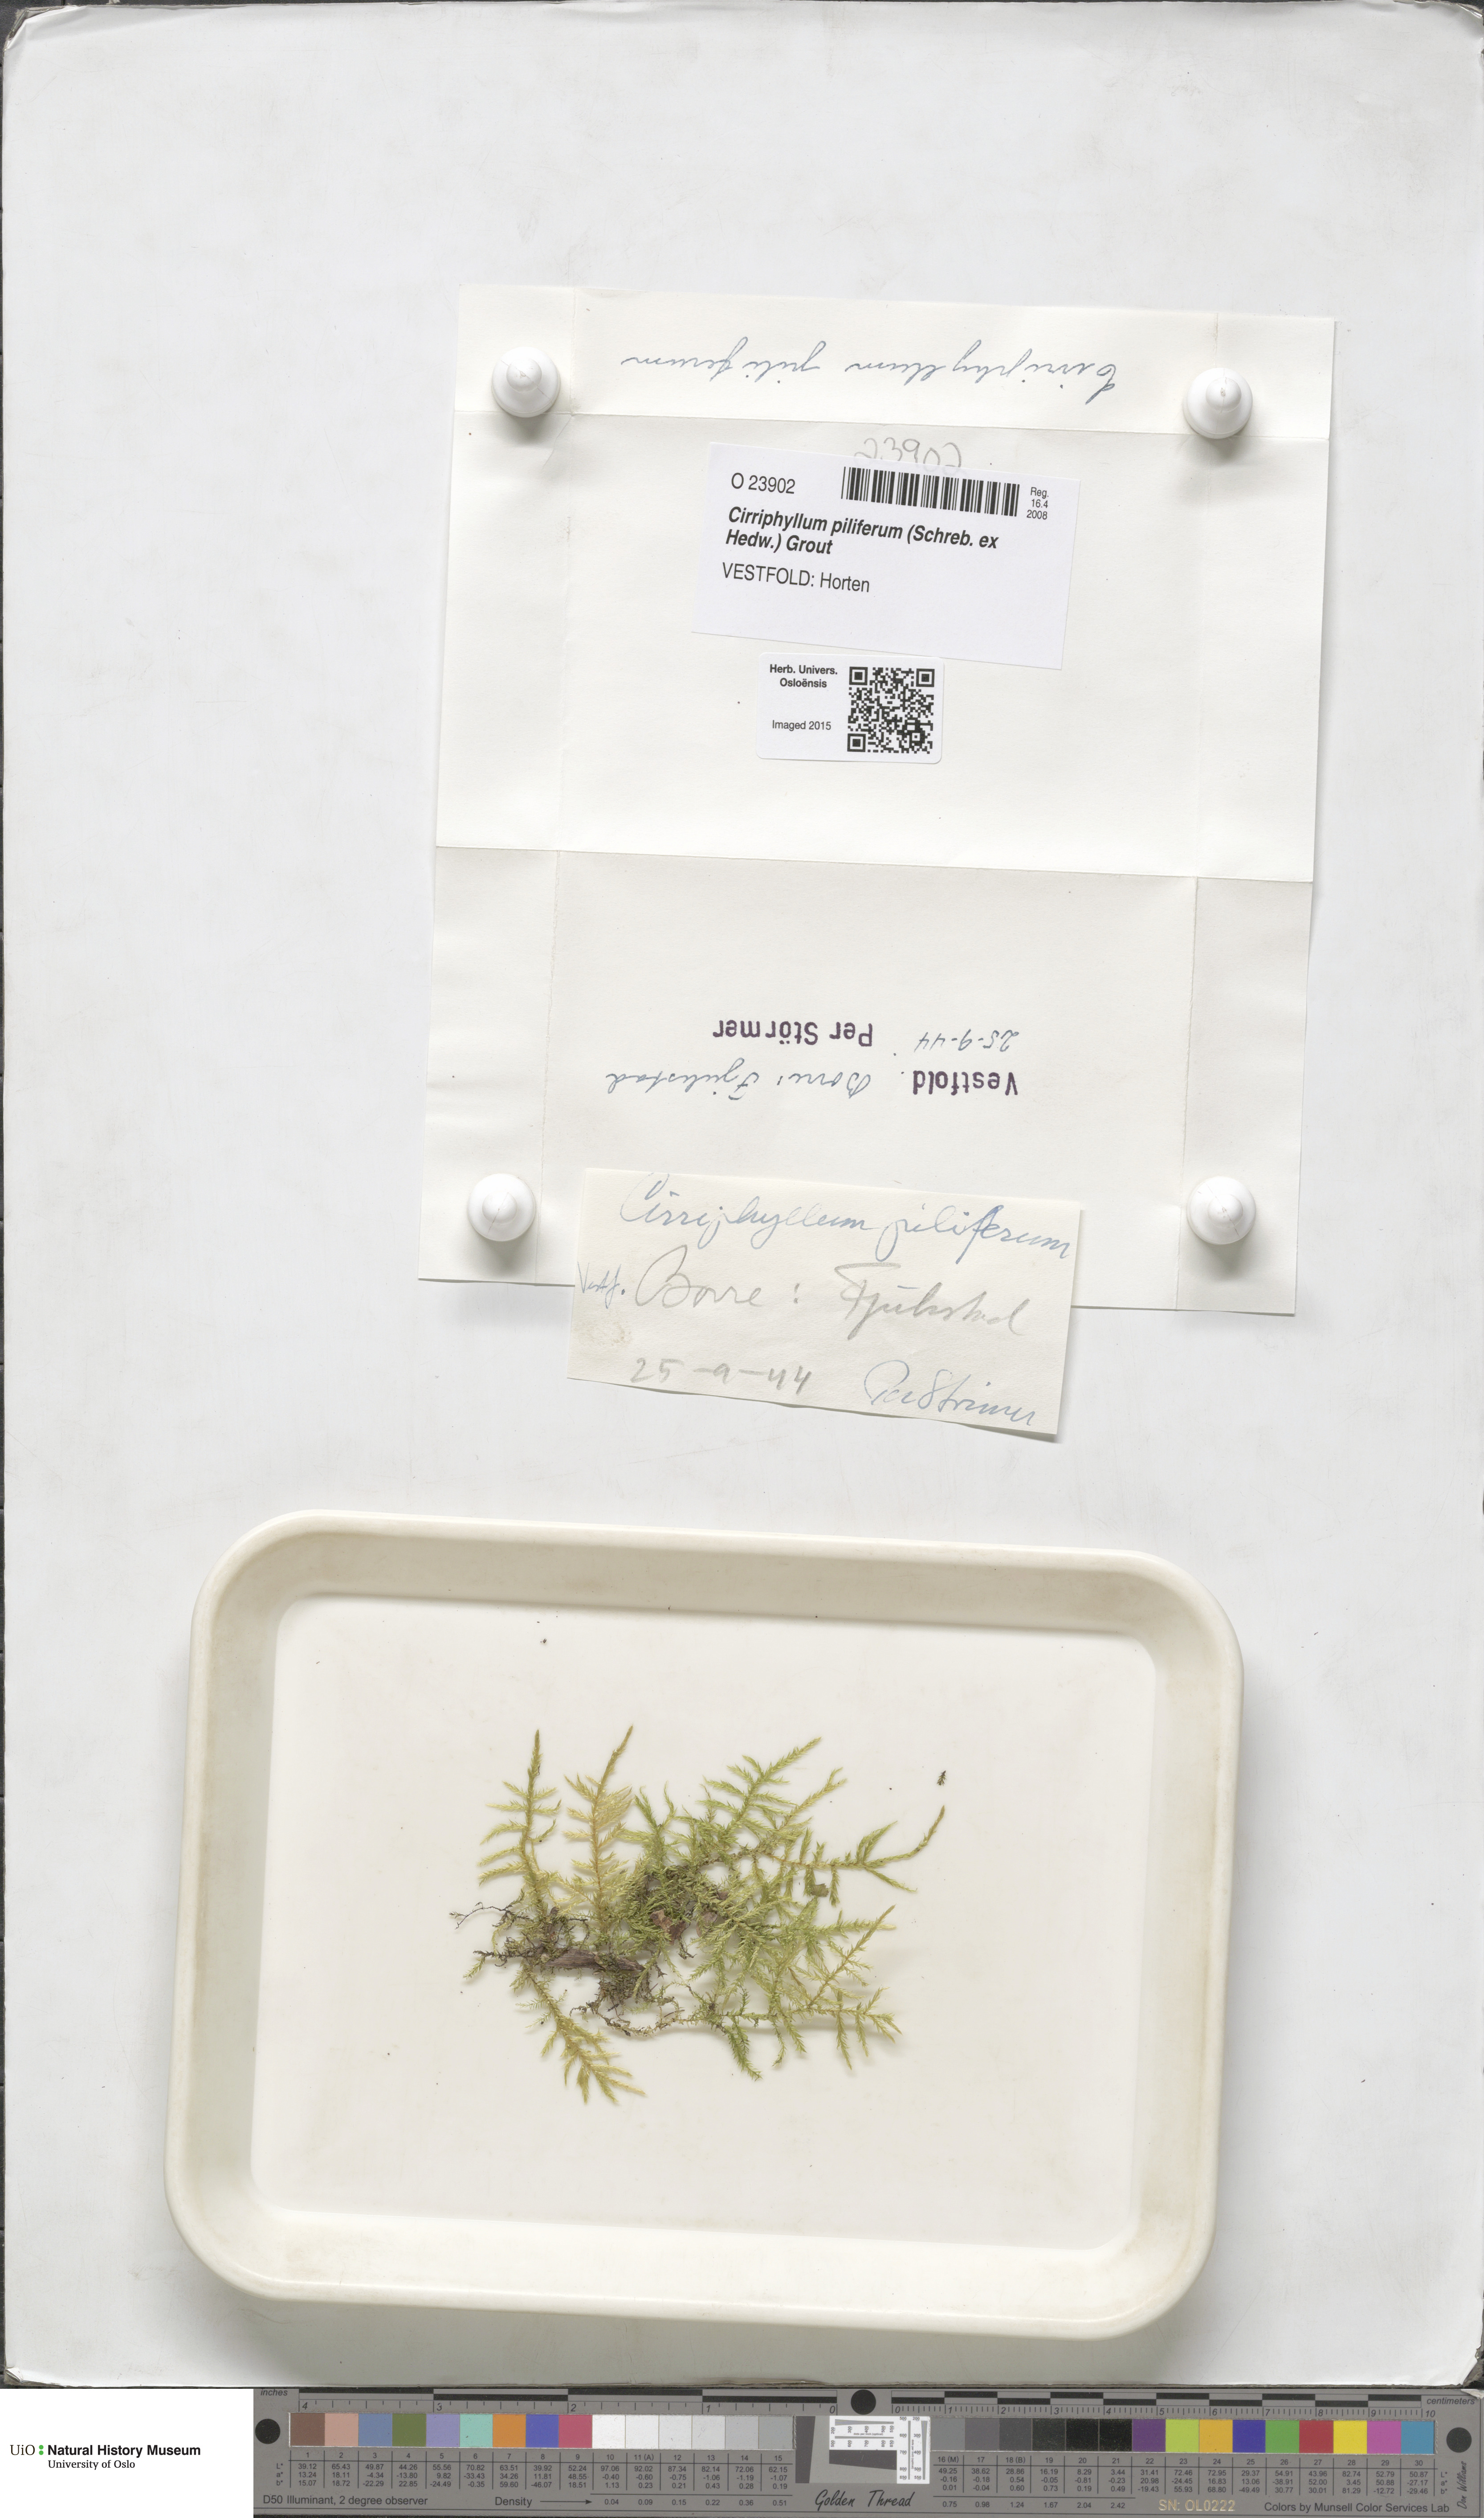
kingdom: Plantae
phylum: Bryophyta
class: Bryopsida
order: Hypnales
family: Brachytheciaceae
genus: Cirriphyllum
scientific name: Cirriphyllum piliferum
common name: Hair-pointed moss
